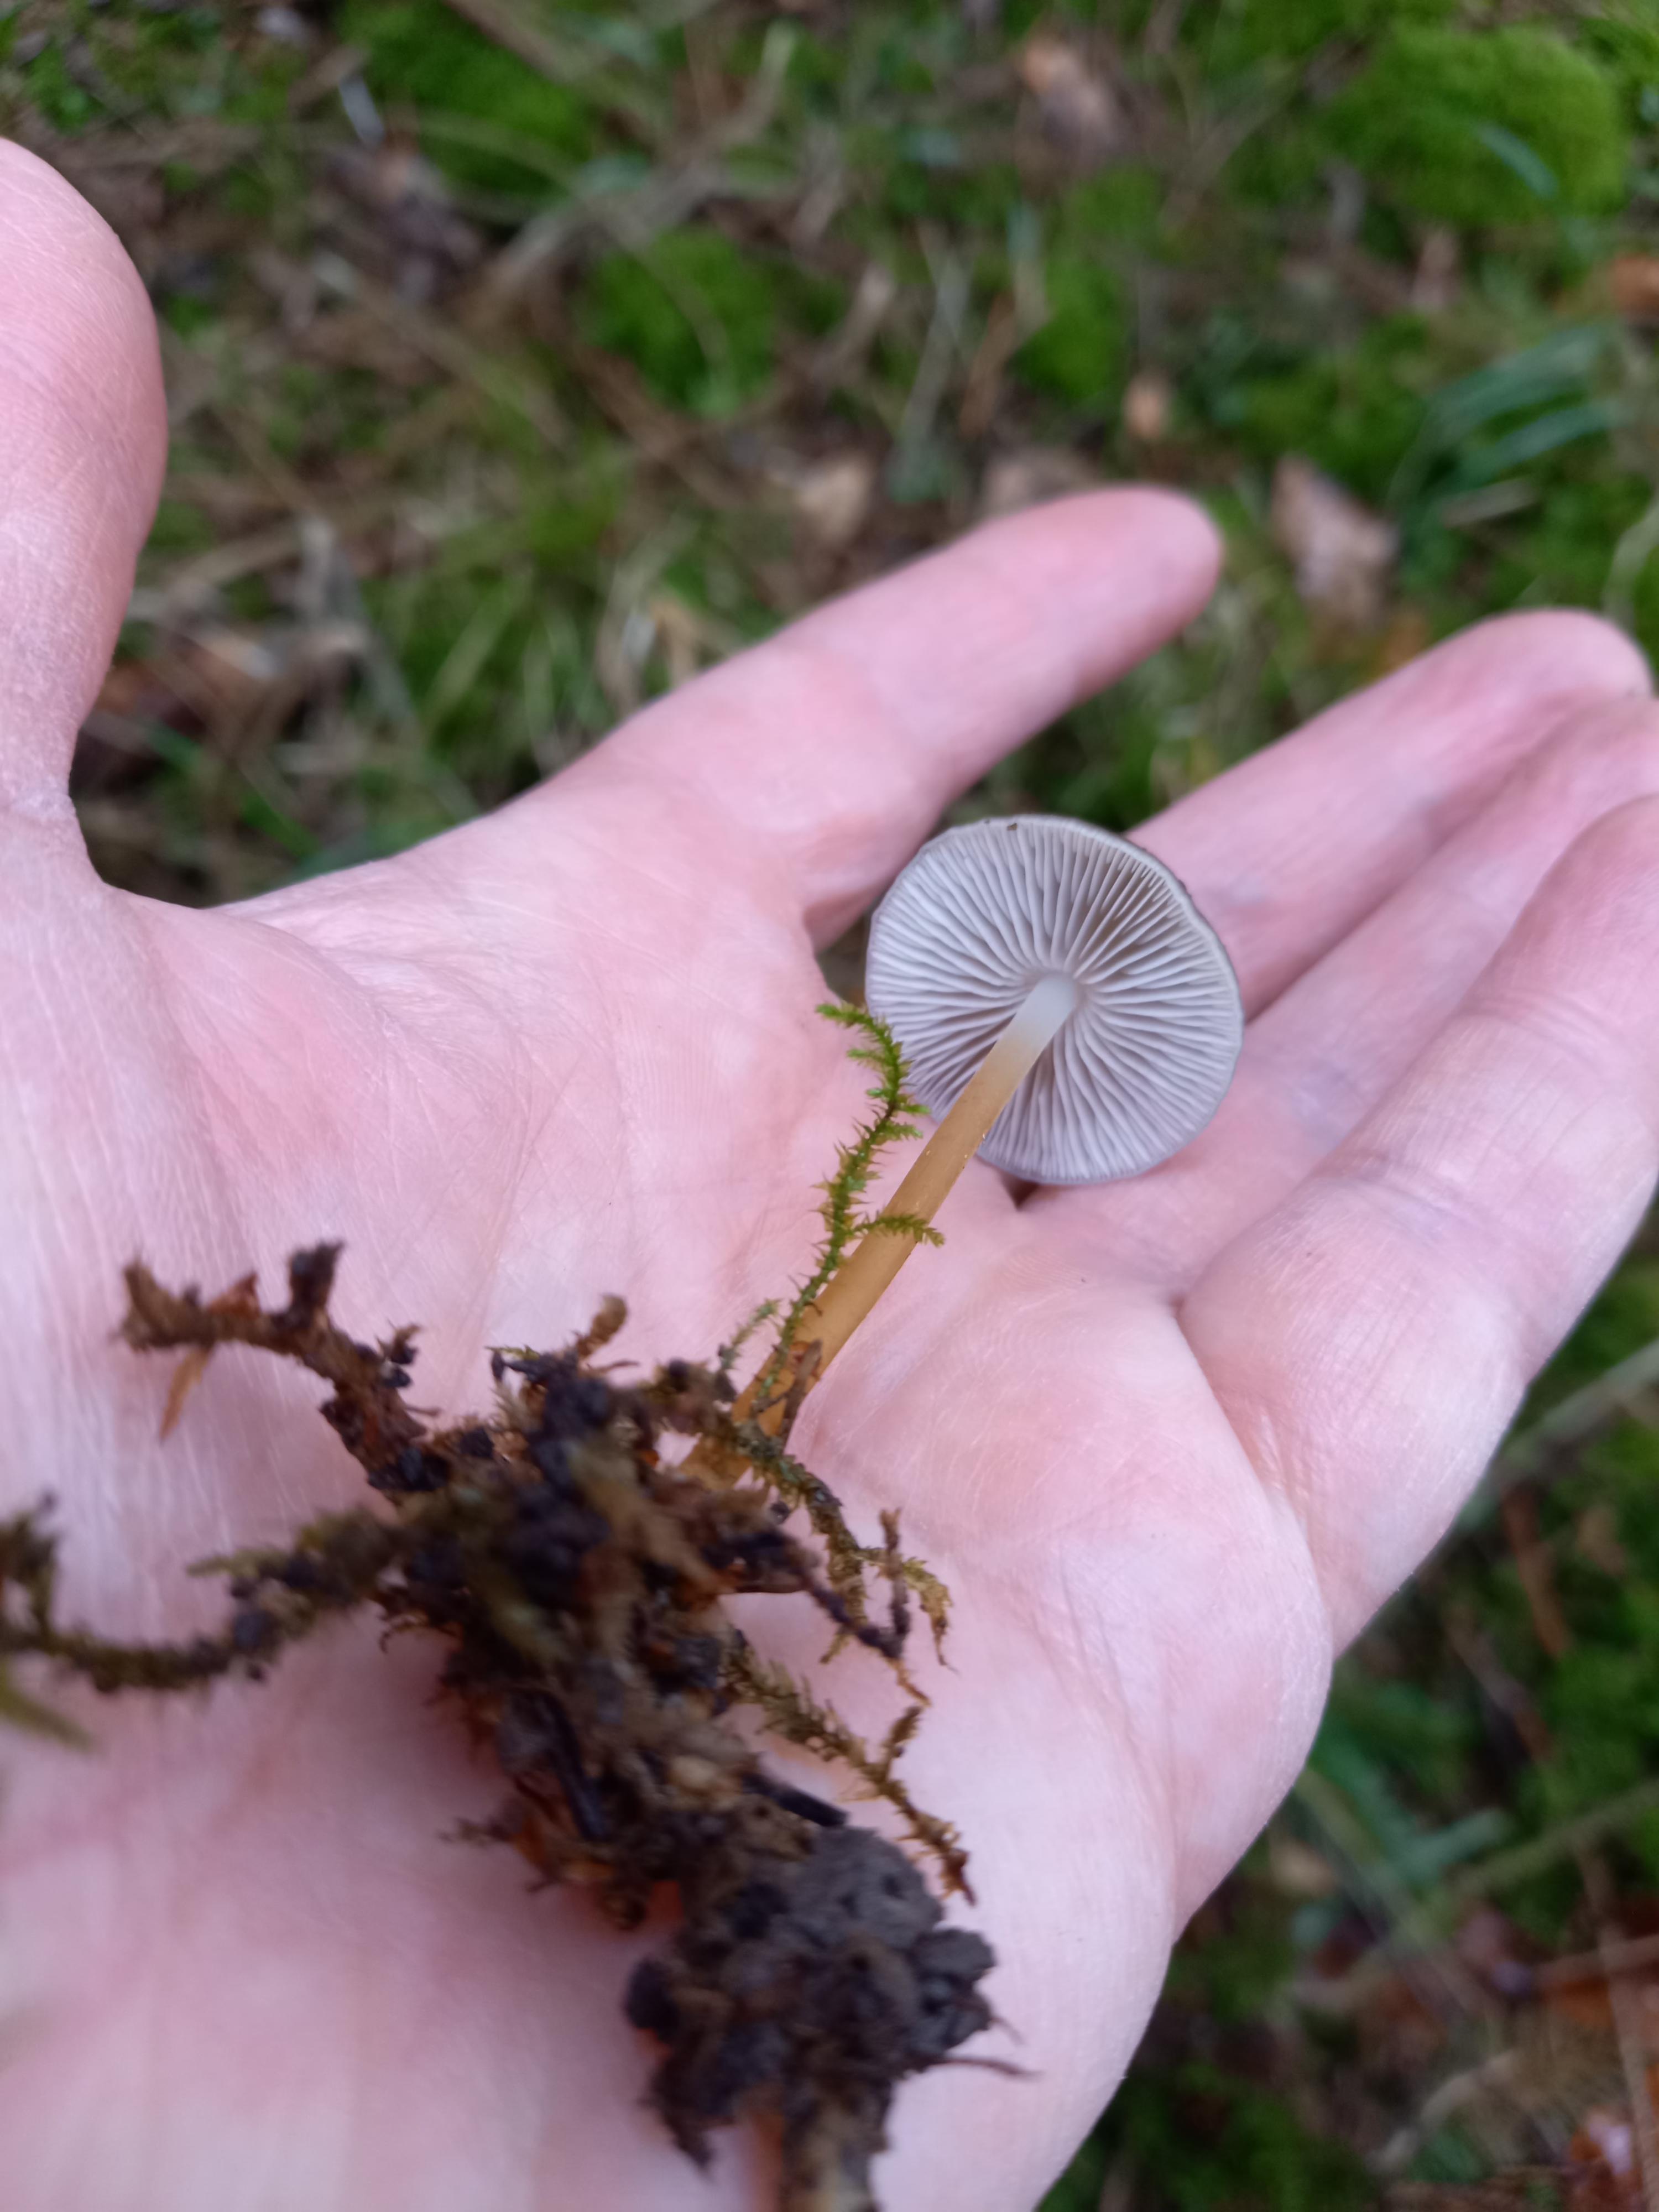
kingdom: Fungi
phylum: Basidiomycota
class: Agaricomycetes
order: Agaricales
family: Physalacriaceae
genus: Strobilurus
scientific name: Strobilurus esculentus
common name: gran-koglehat
